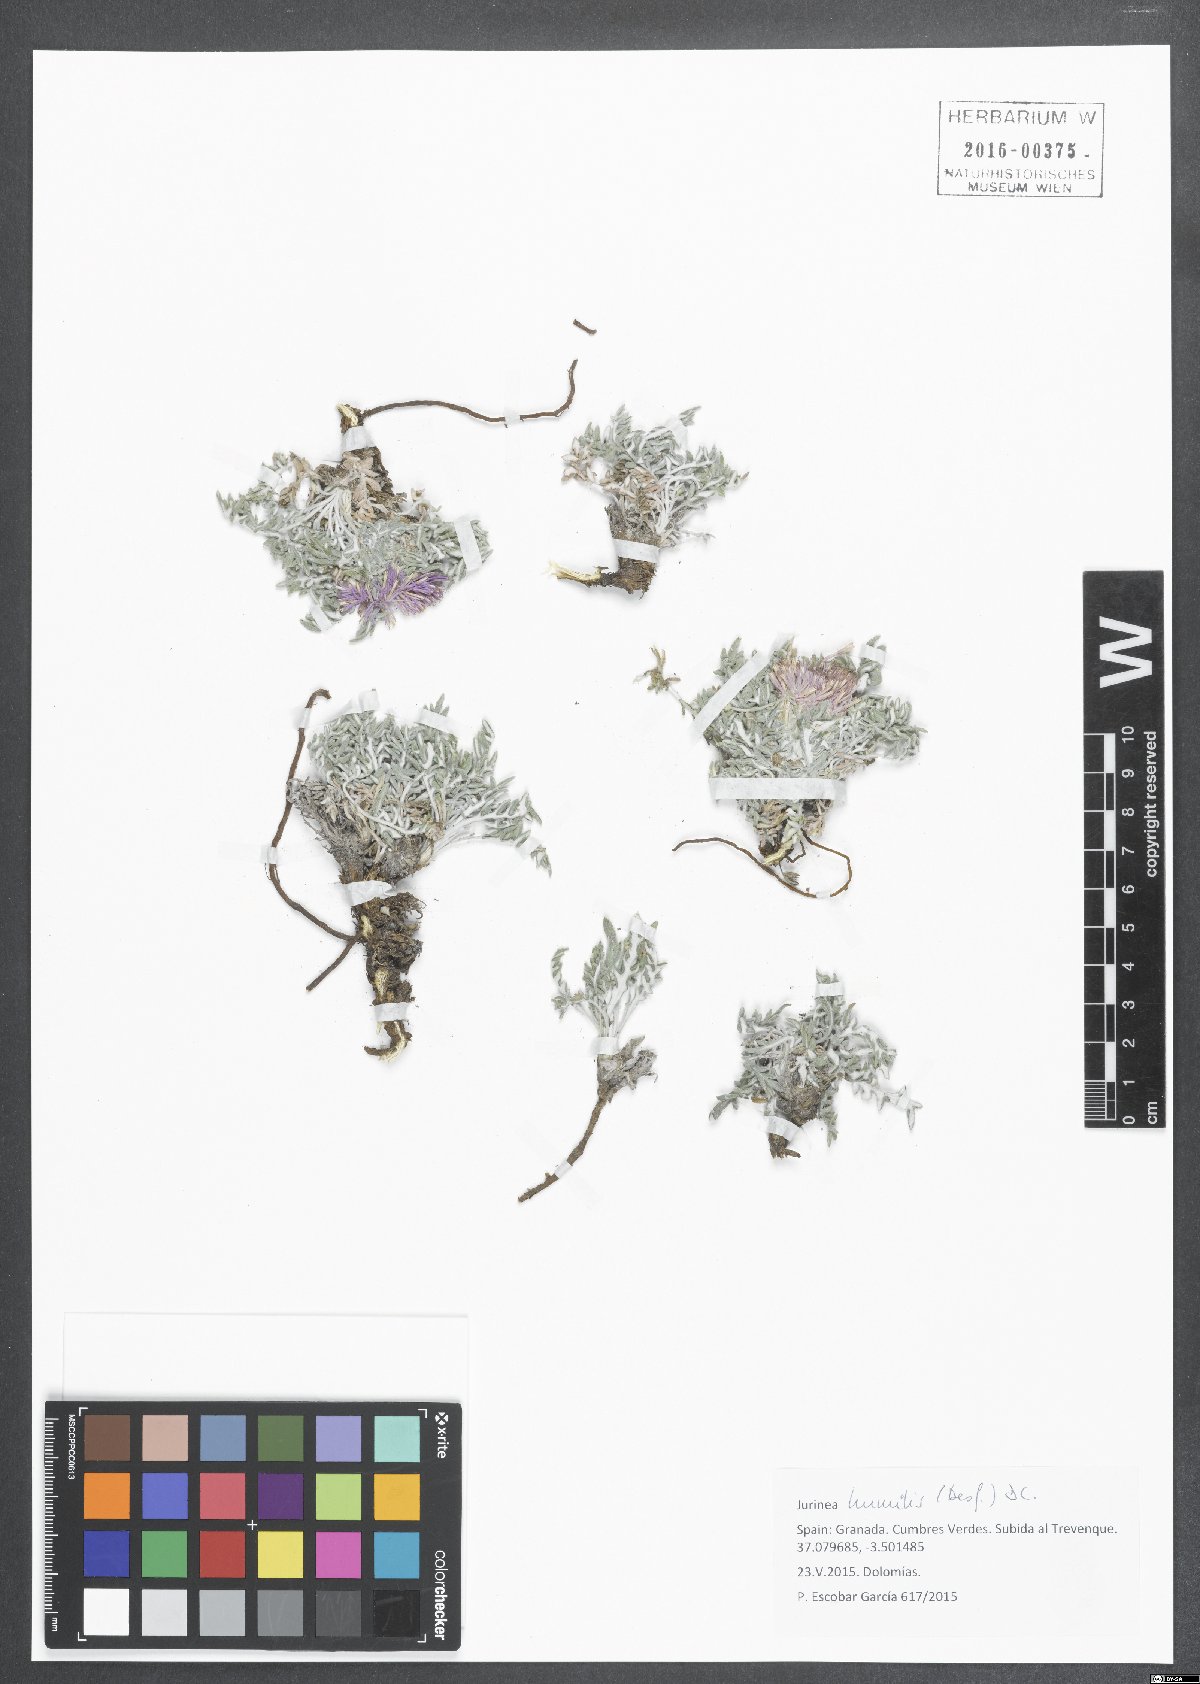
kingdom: Plantae
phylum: Tracheophyta
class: Magnoliopsida
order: Asterales
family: Asteraceae
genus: Jurinea
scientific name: Jurinea humilis
